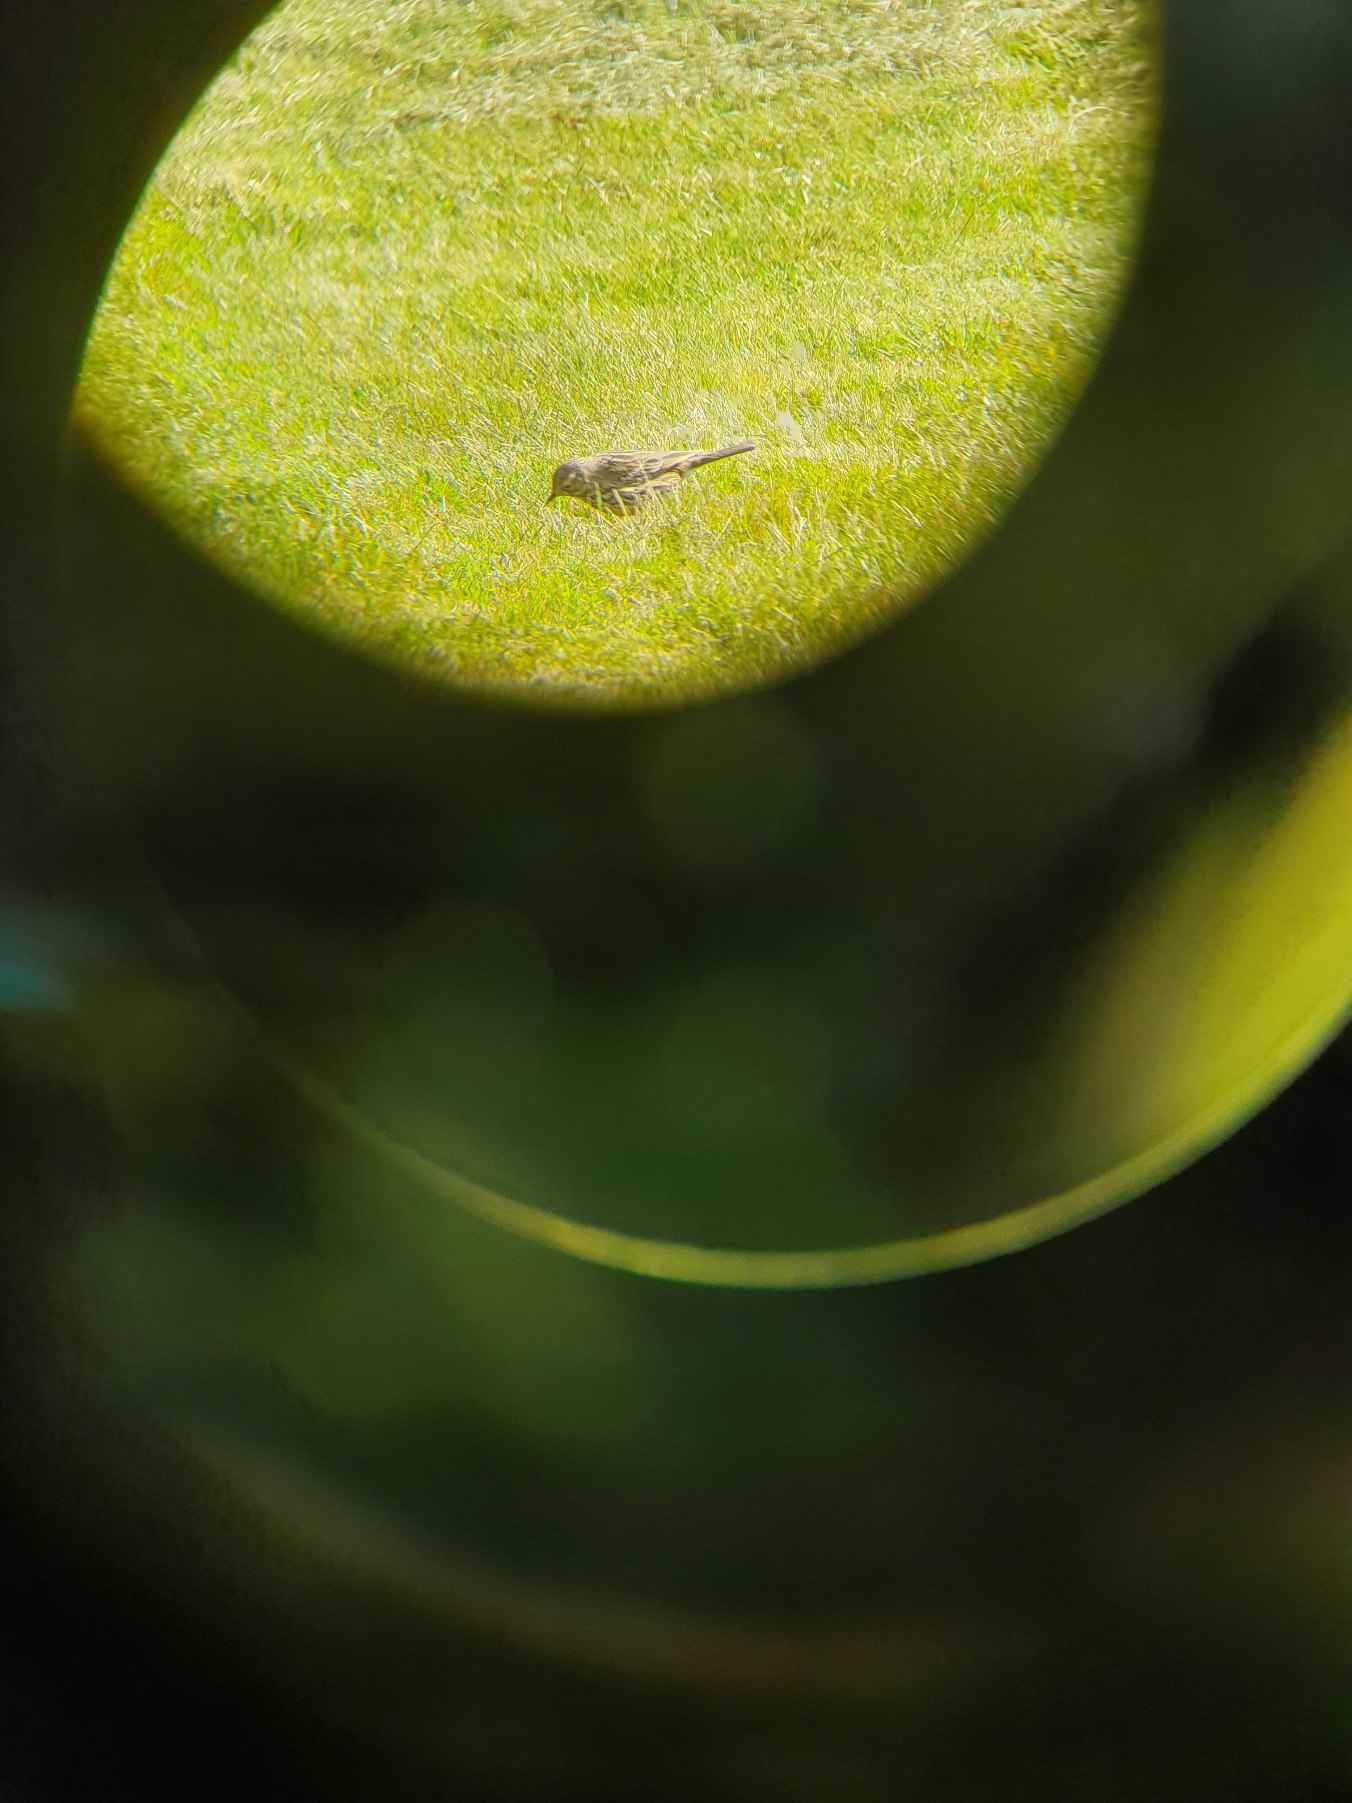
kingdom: Animalia
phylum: Chordata
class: Aves
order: Passeriformes
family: Motacillidae
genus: Anthus
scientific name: Anthus pratensis
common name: Engpiber
